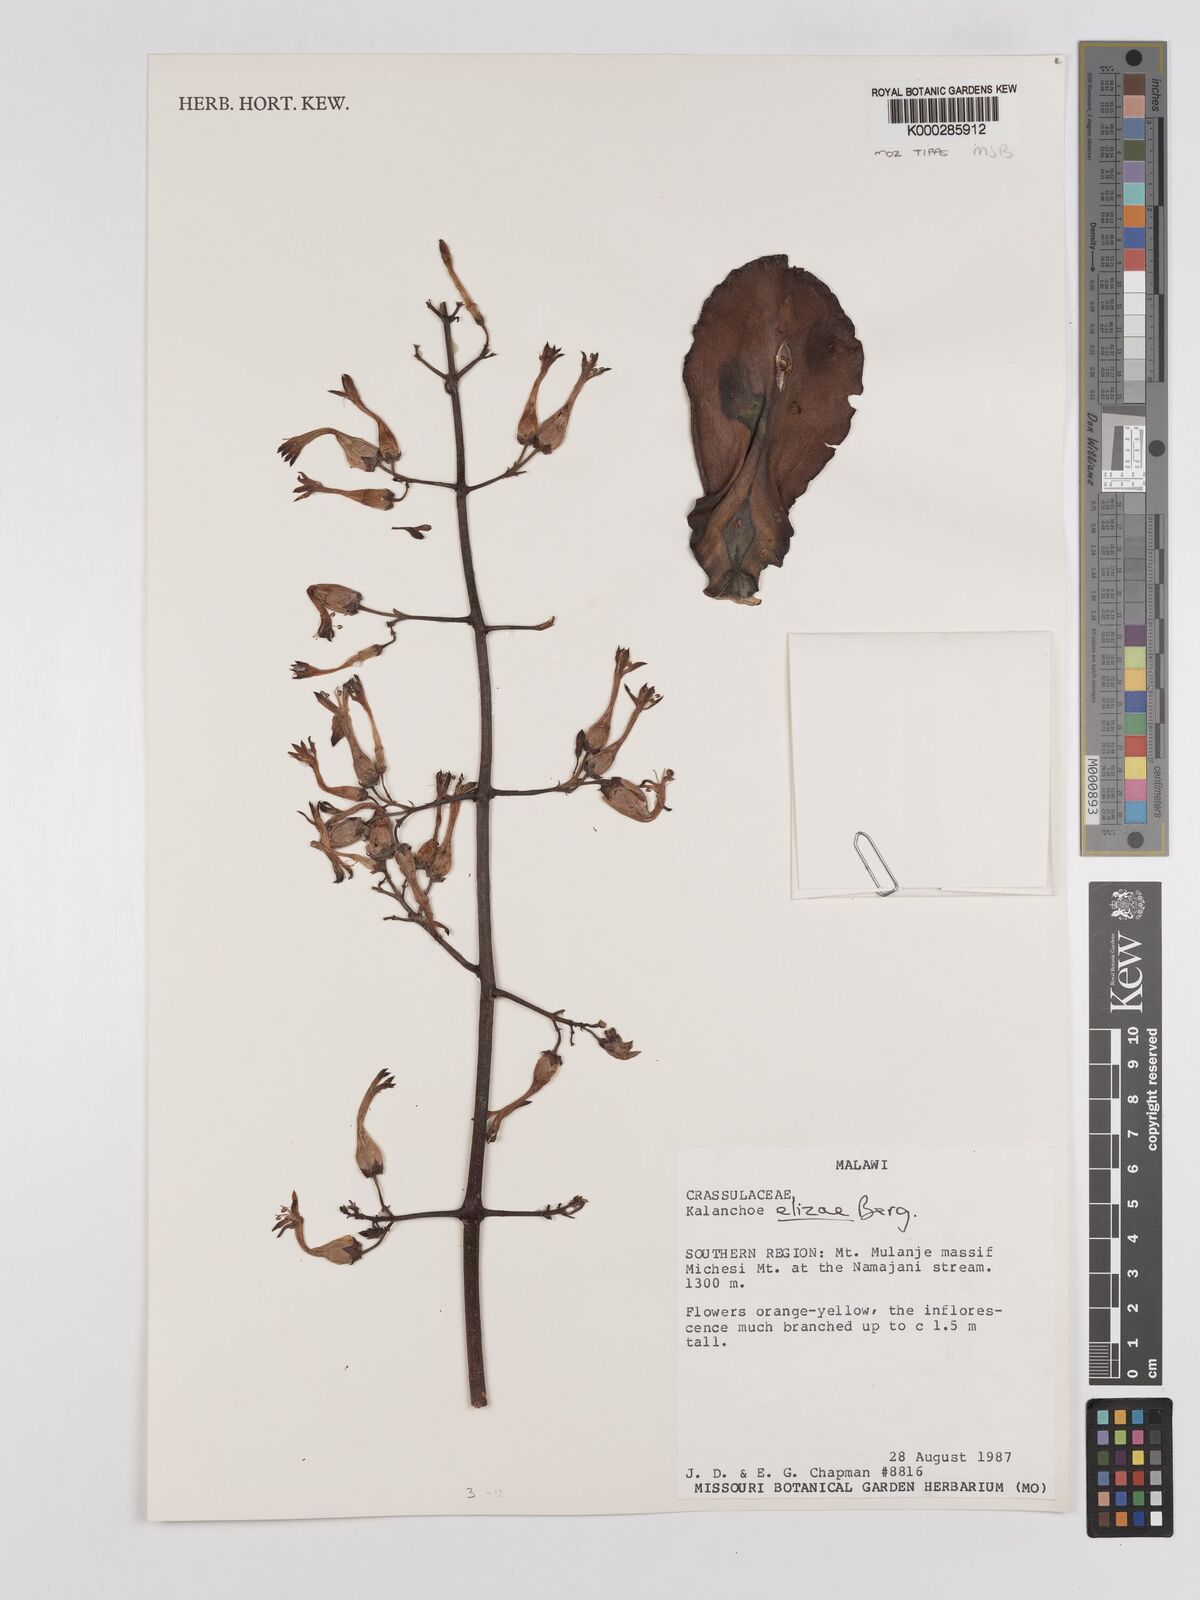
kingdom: Plantae
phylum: Tracheophyta
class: Magnoliopsida
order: Saxifragales
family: Crassulaceae
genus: Kalanchoe
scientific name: Kalanchoe elizae
